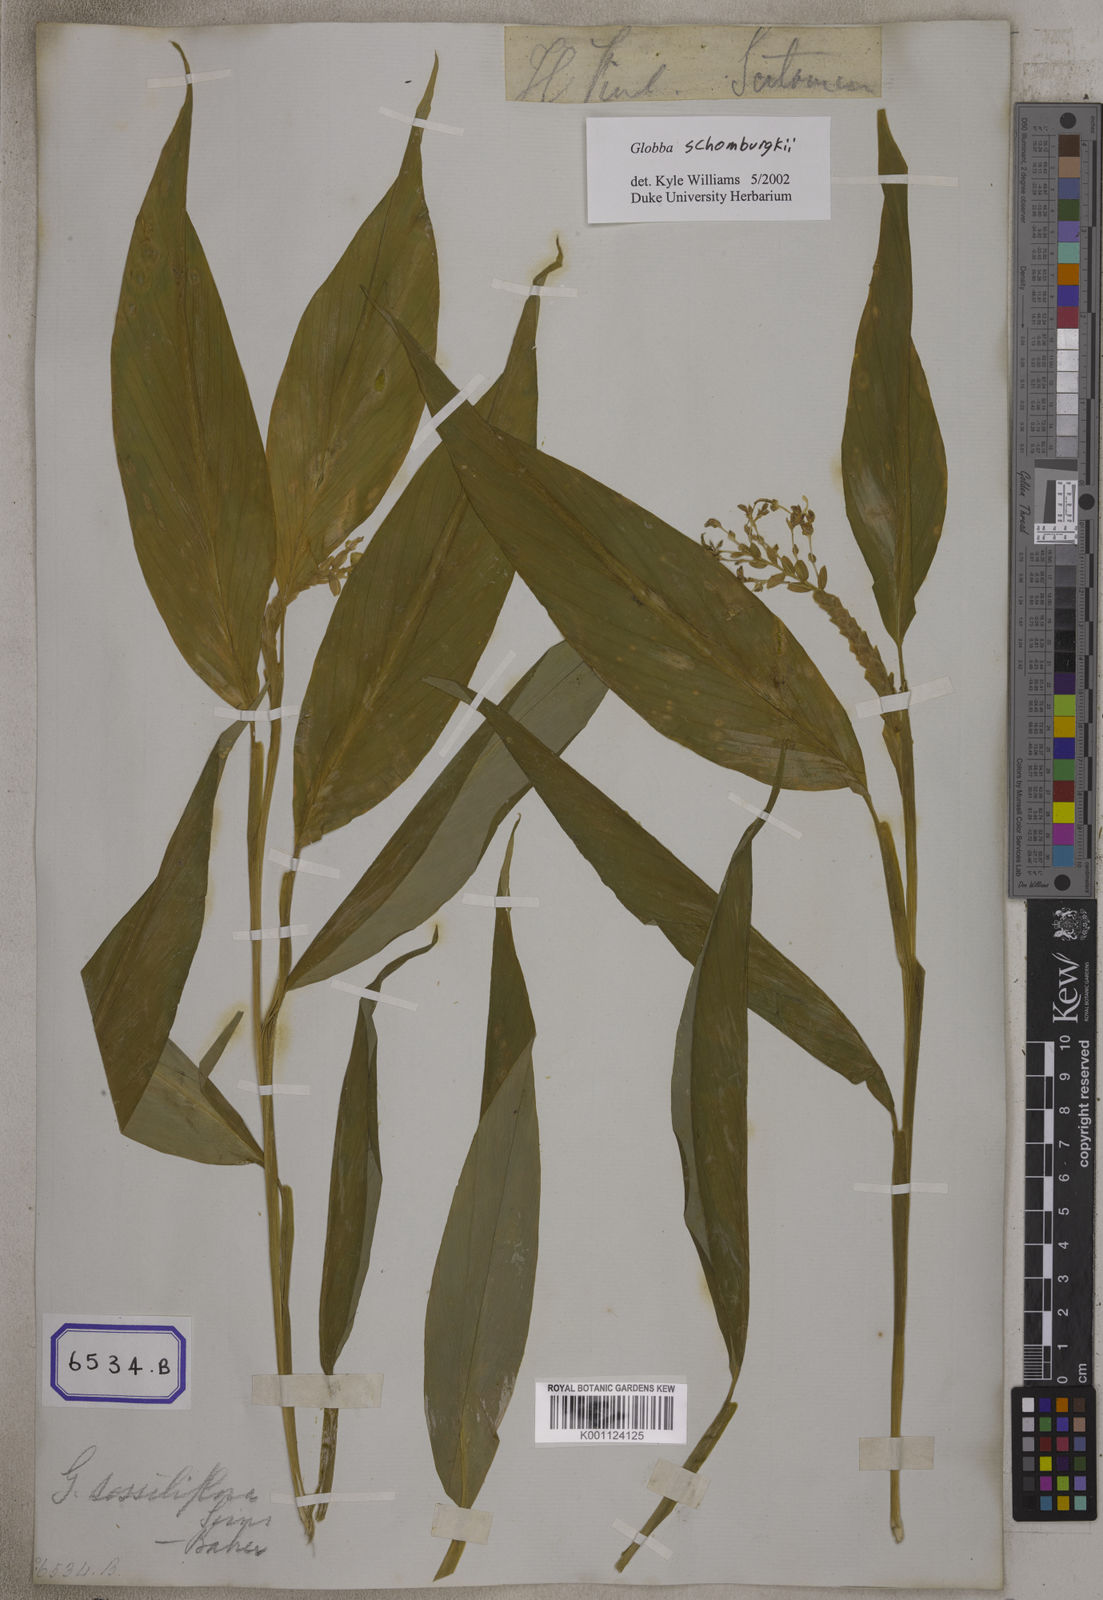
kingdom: Plantae
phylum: Tracheophyta
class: Liliopsida
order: Zingiberales
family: Zingiberaceae
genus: Globba
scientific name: Globba sessiliflora
